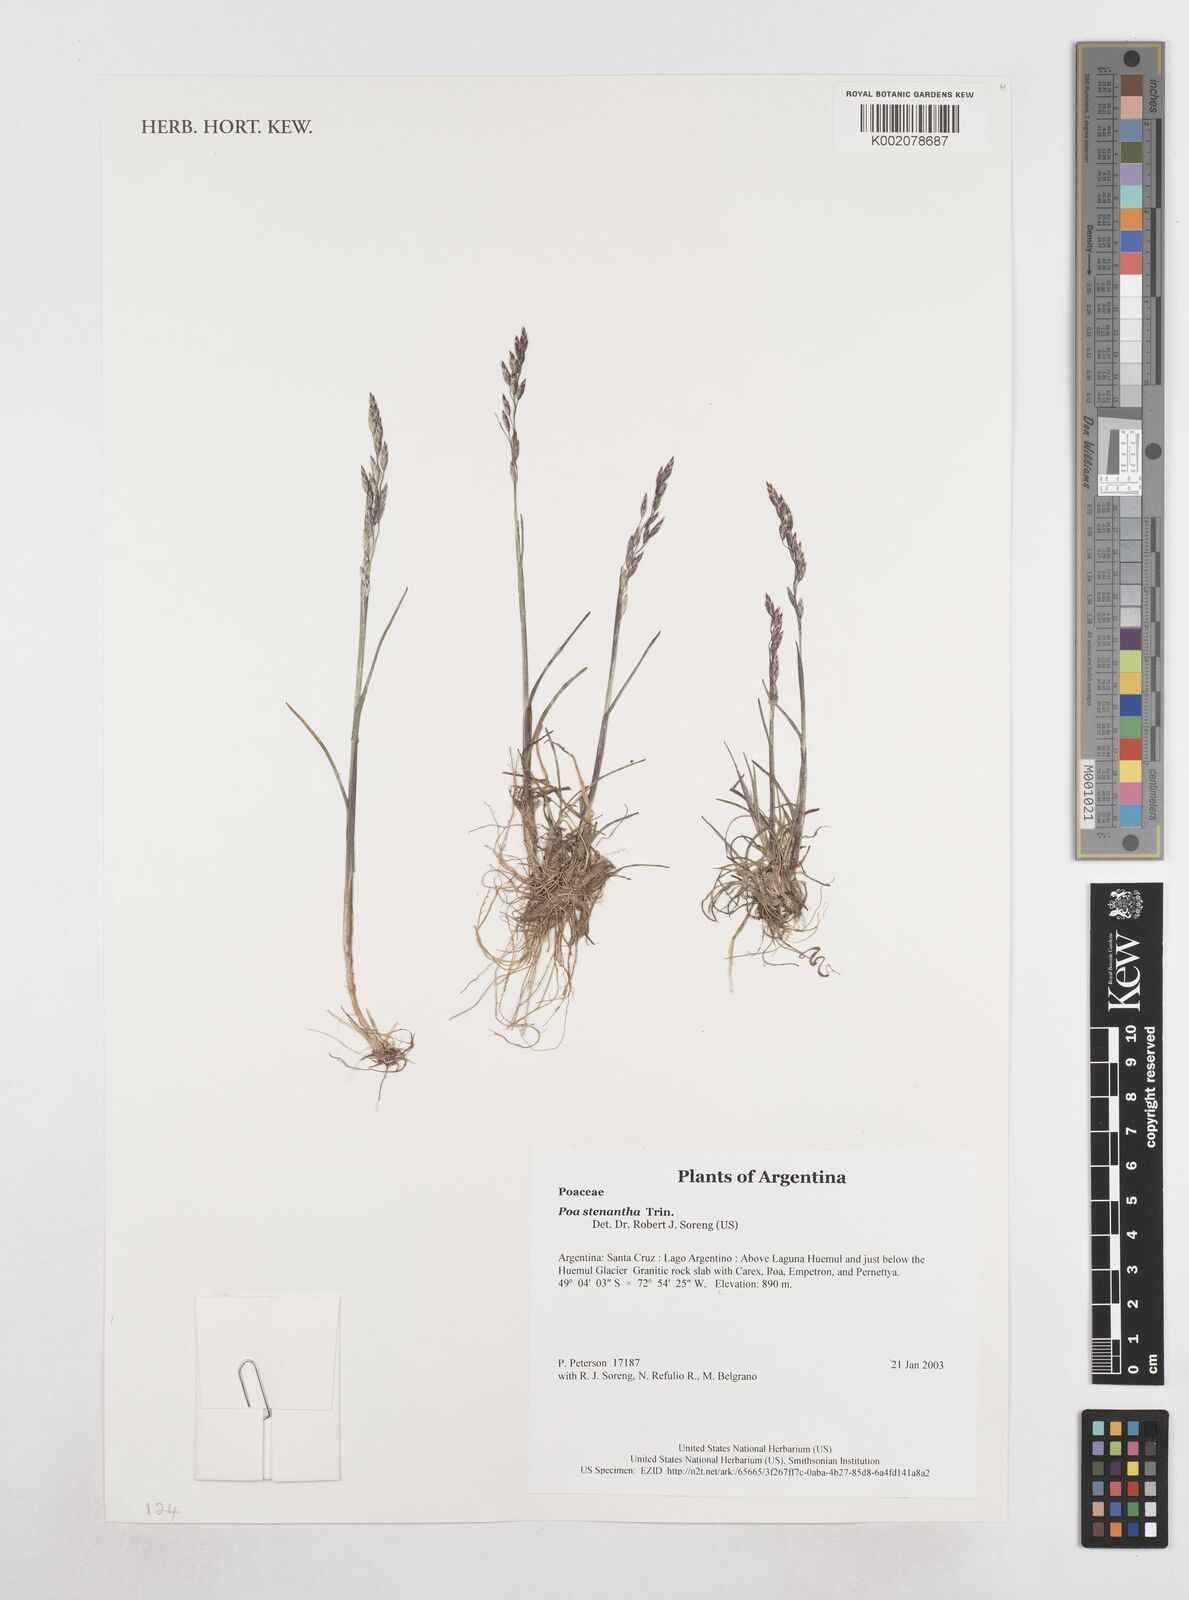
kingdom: Plantae
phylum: Tracheophyta
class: Liliopsida
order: Poales
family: Poaceae
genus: Poa
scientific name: Poa stenantha
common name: Narrow-flowered bluegrass
